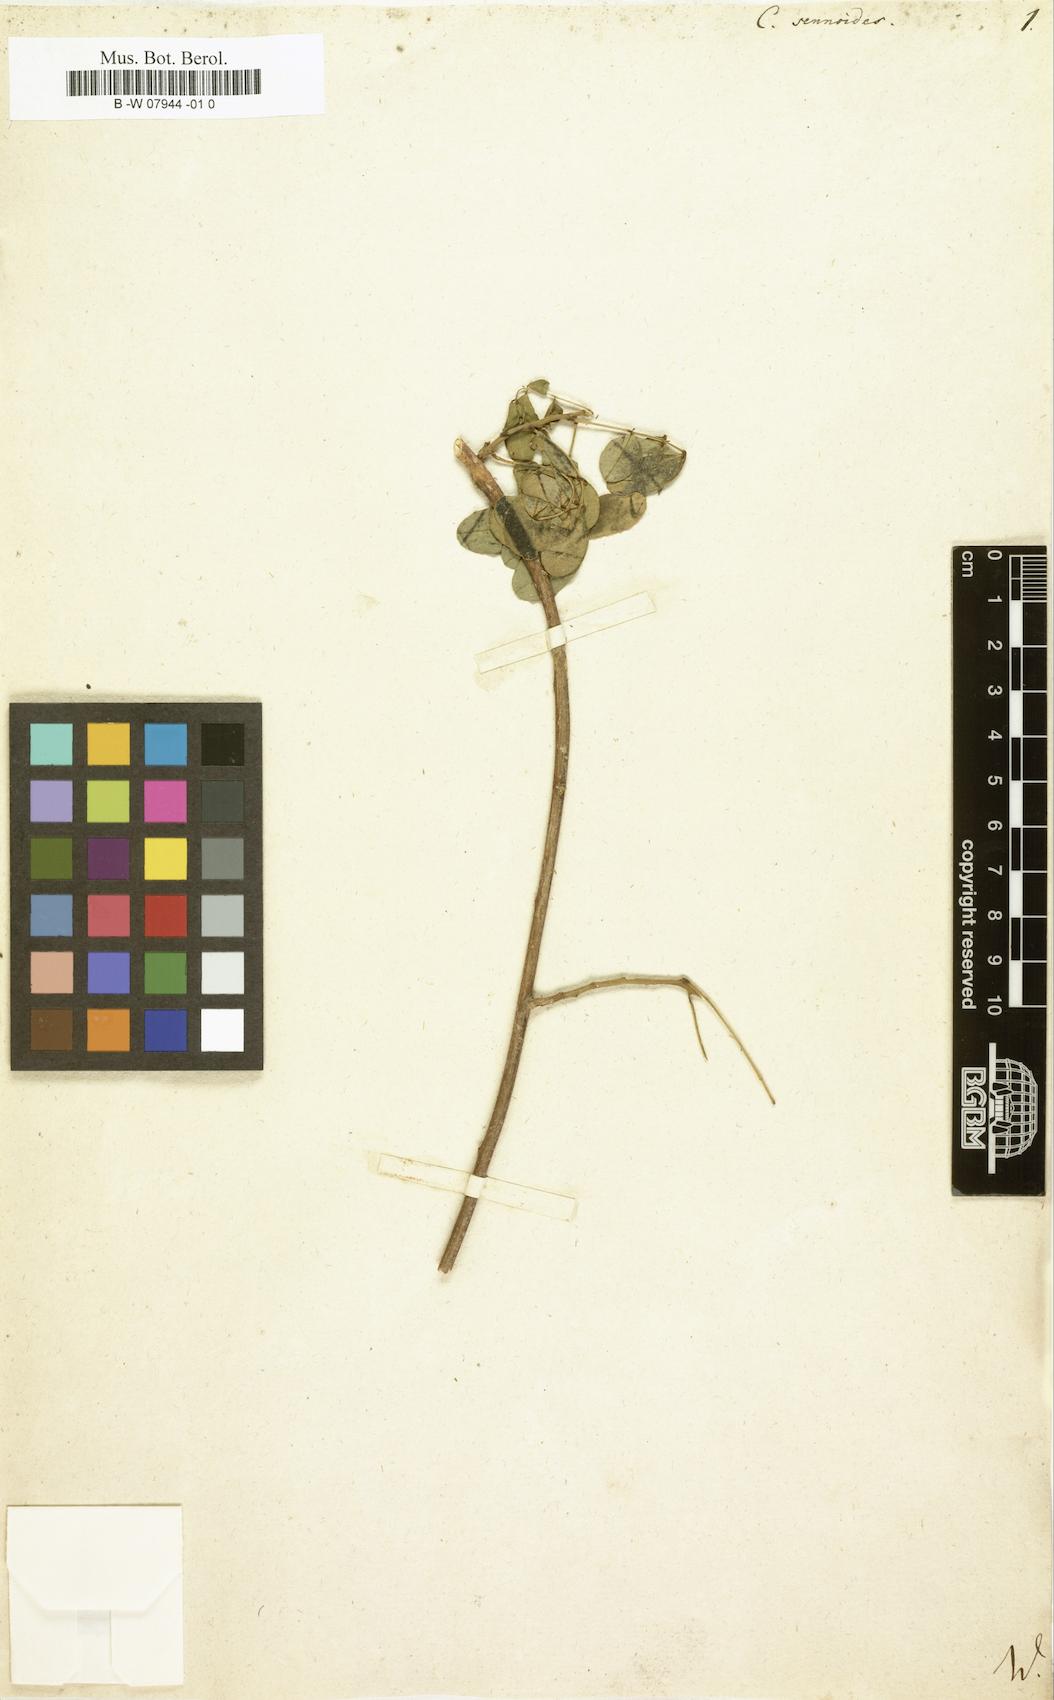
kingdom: Plantae
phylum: Tracheophyta
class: Magnoliopsida
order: Fabales
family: Fabaceae
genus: Senna
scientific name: Senna bicapsularis
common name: Christmasbush
